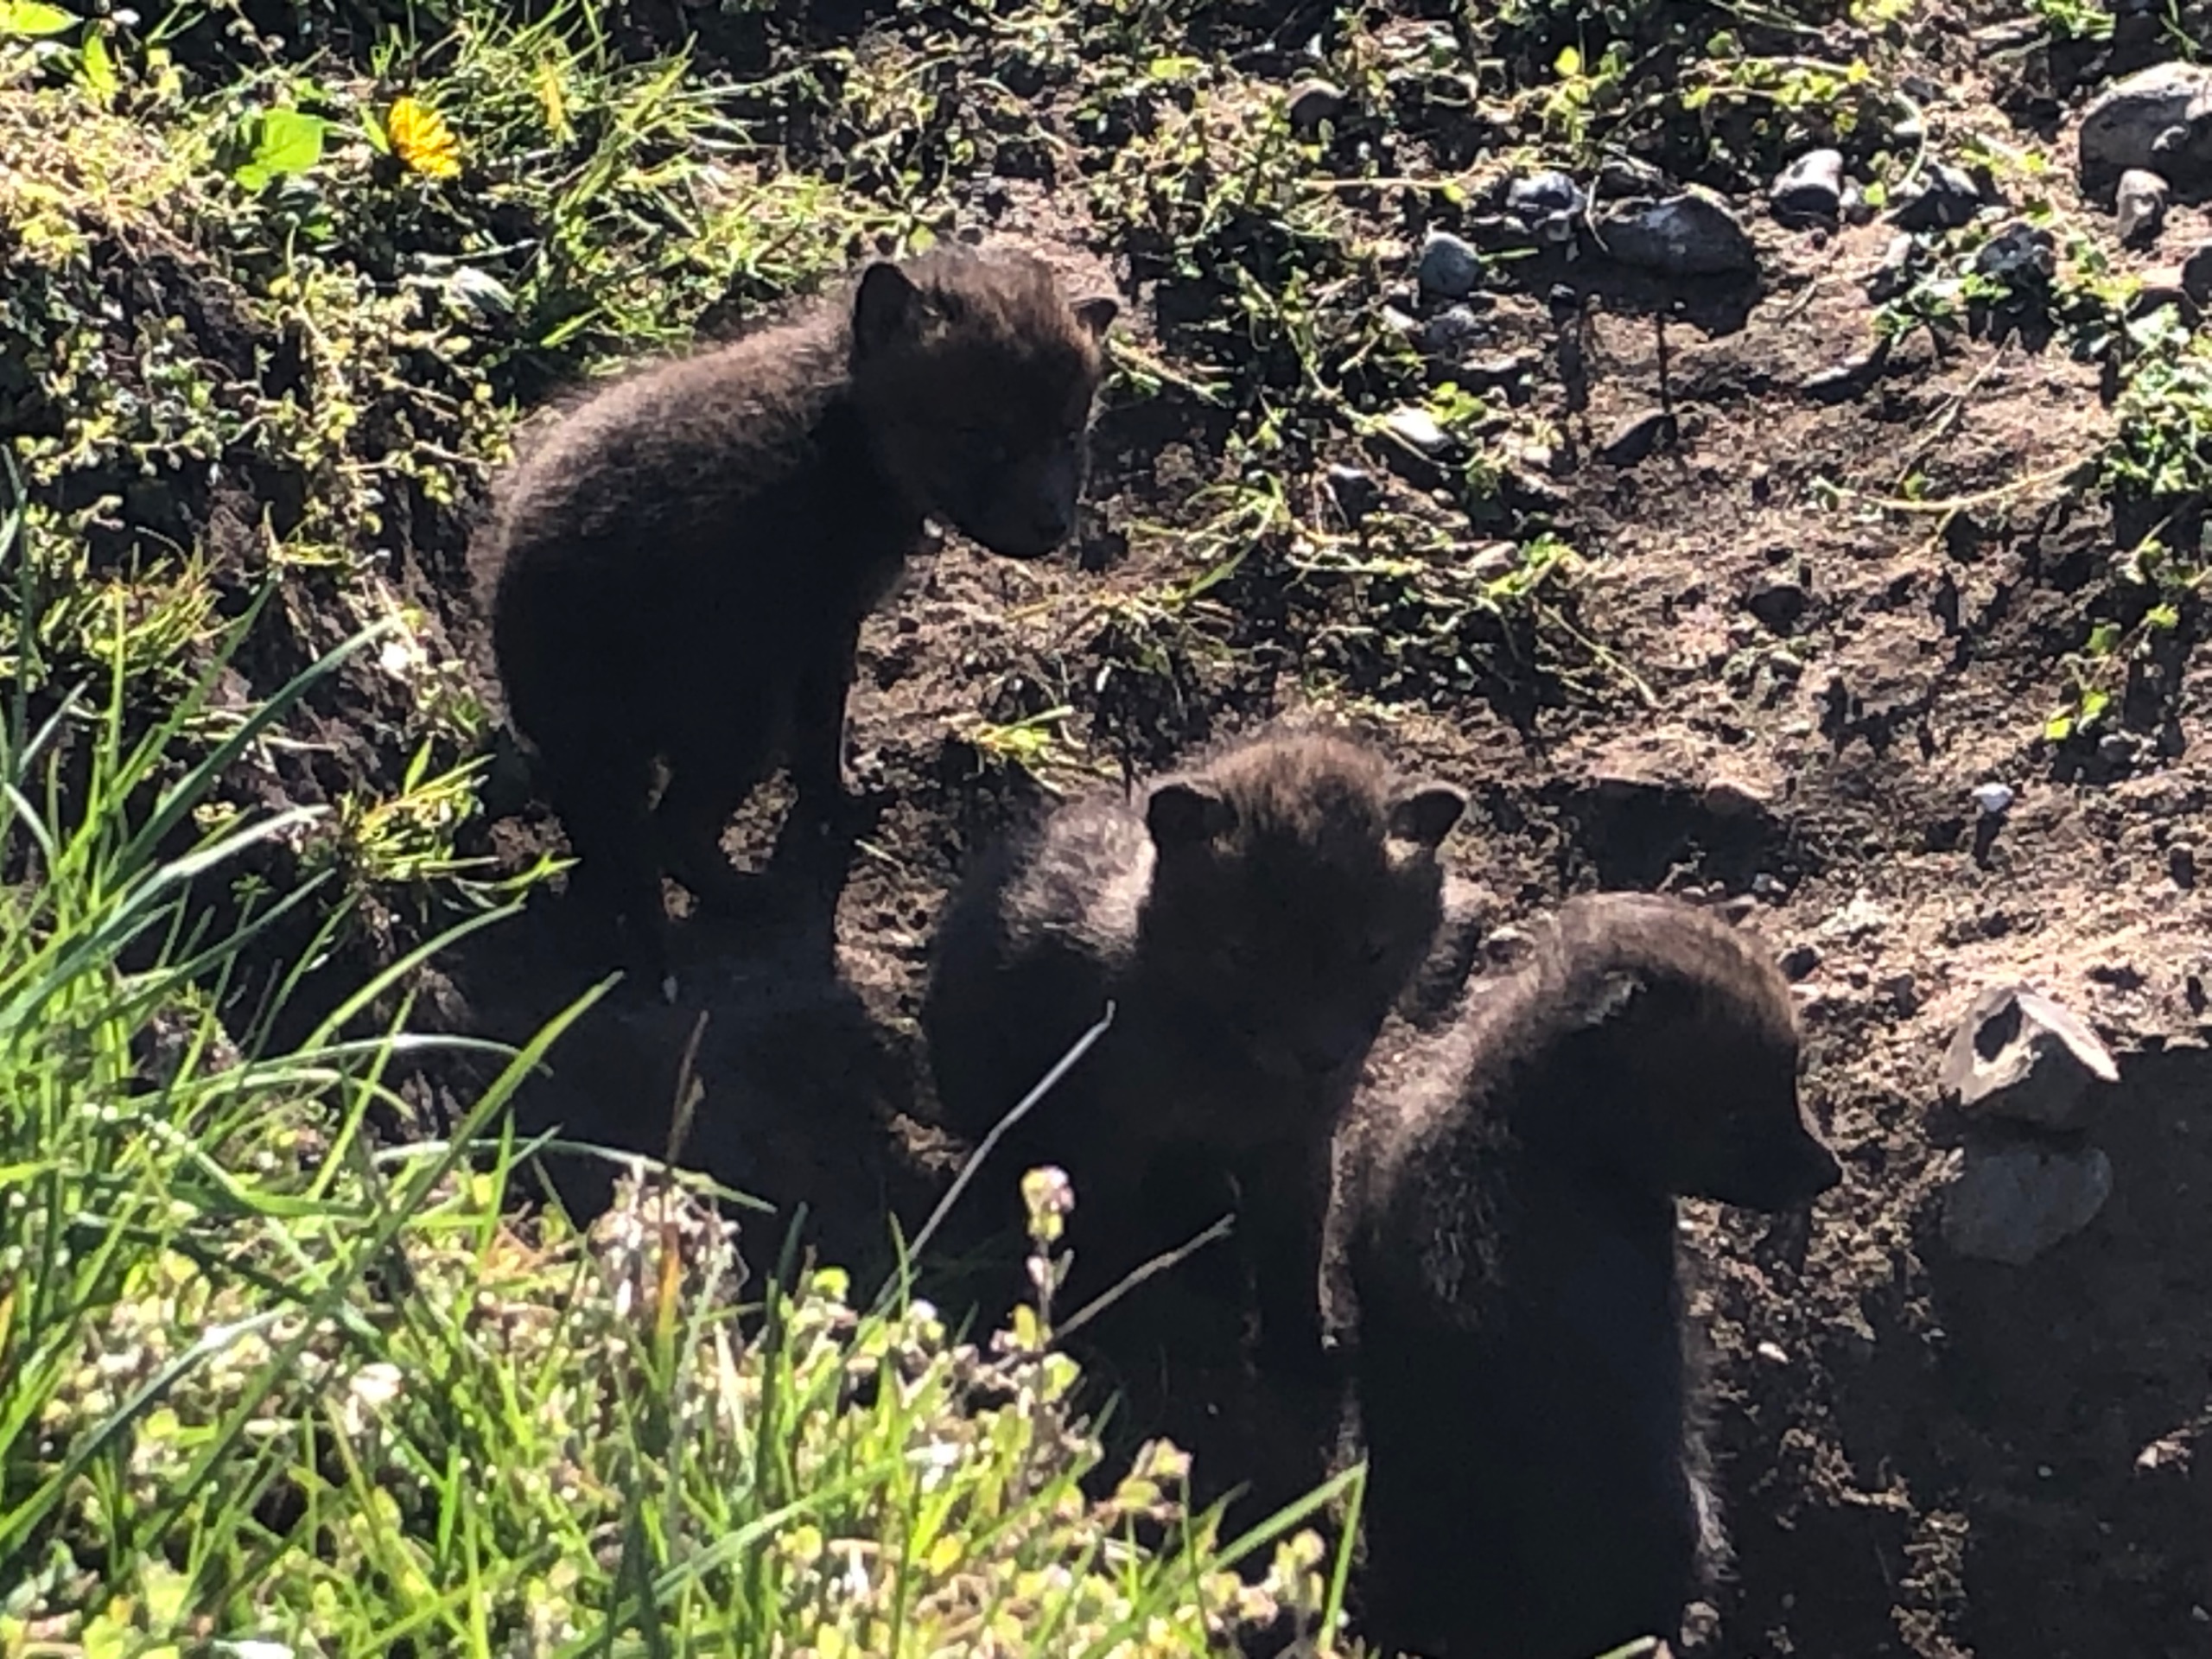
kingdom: Animalia
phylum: Chordata
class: Mammalia
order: Carnivora
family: Canidae
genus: Vulpes
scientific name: Vulpes vulpes
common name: Ræv
